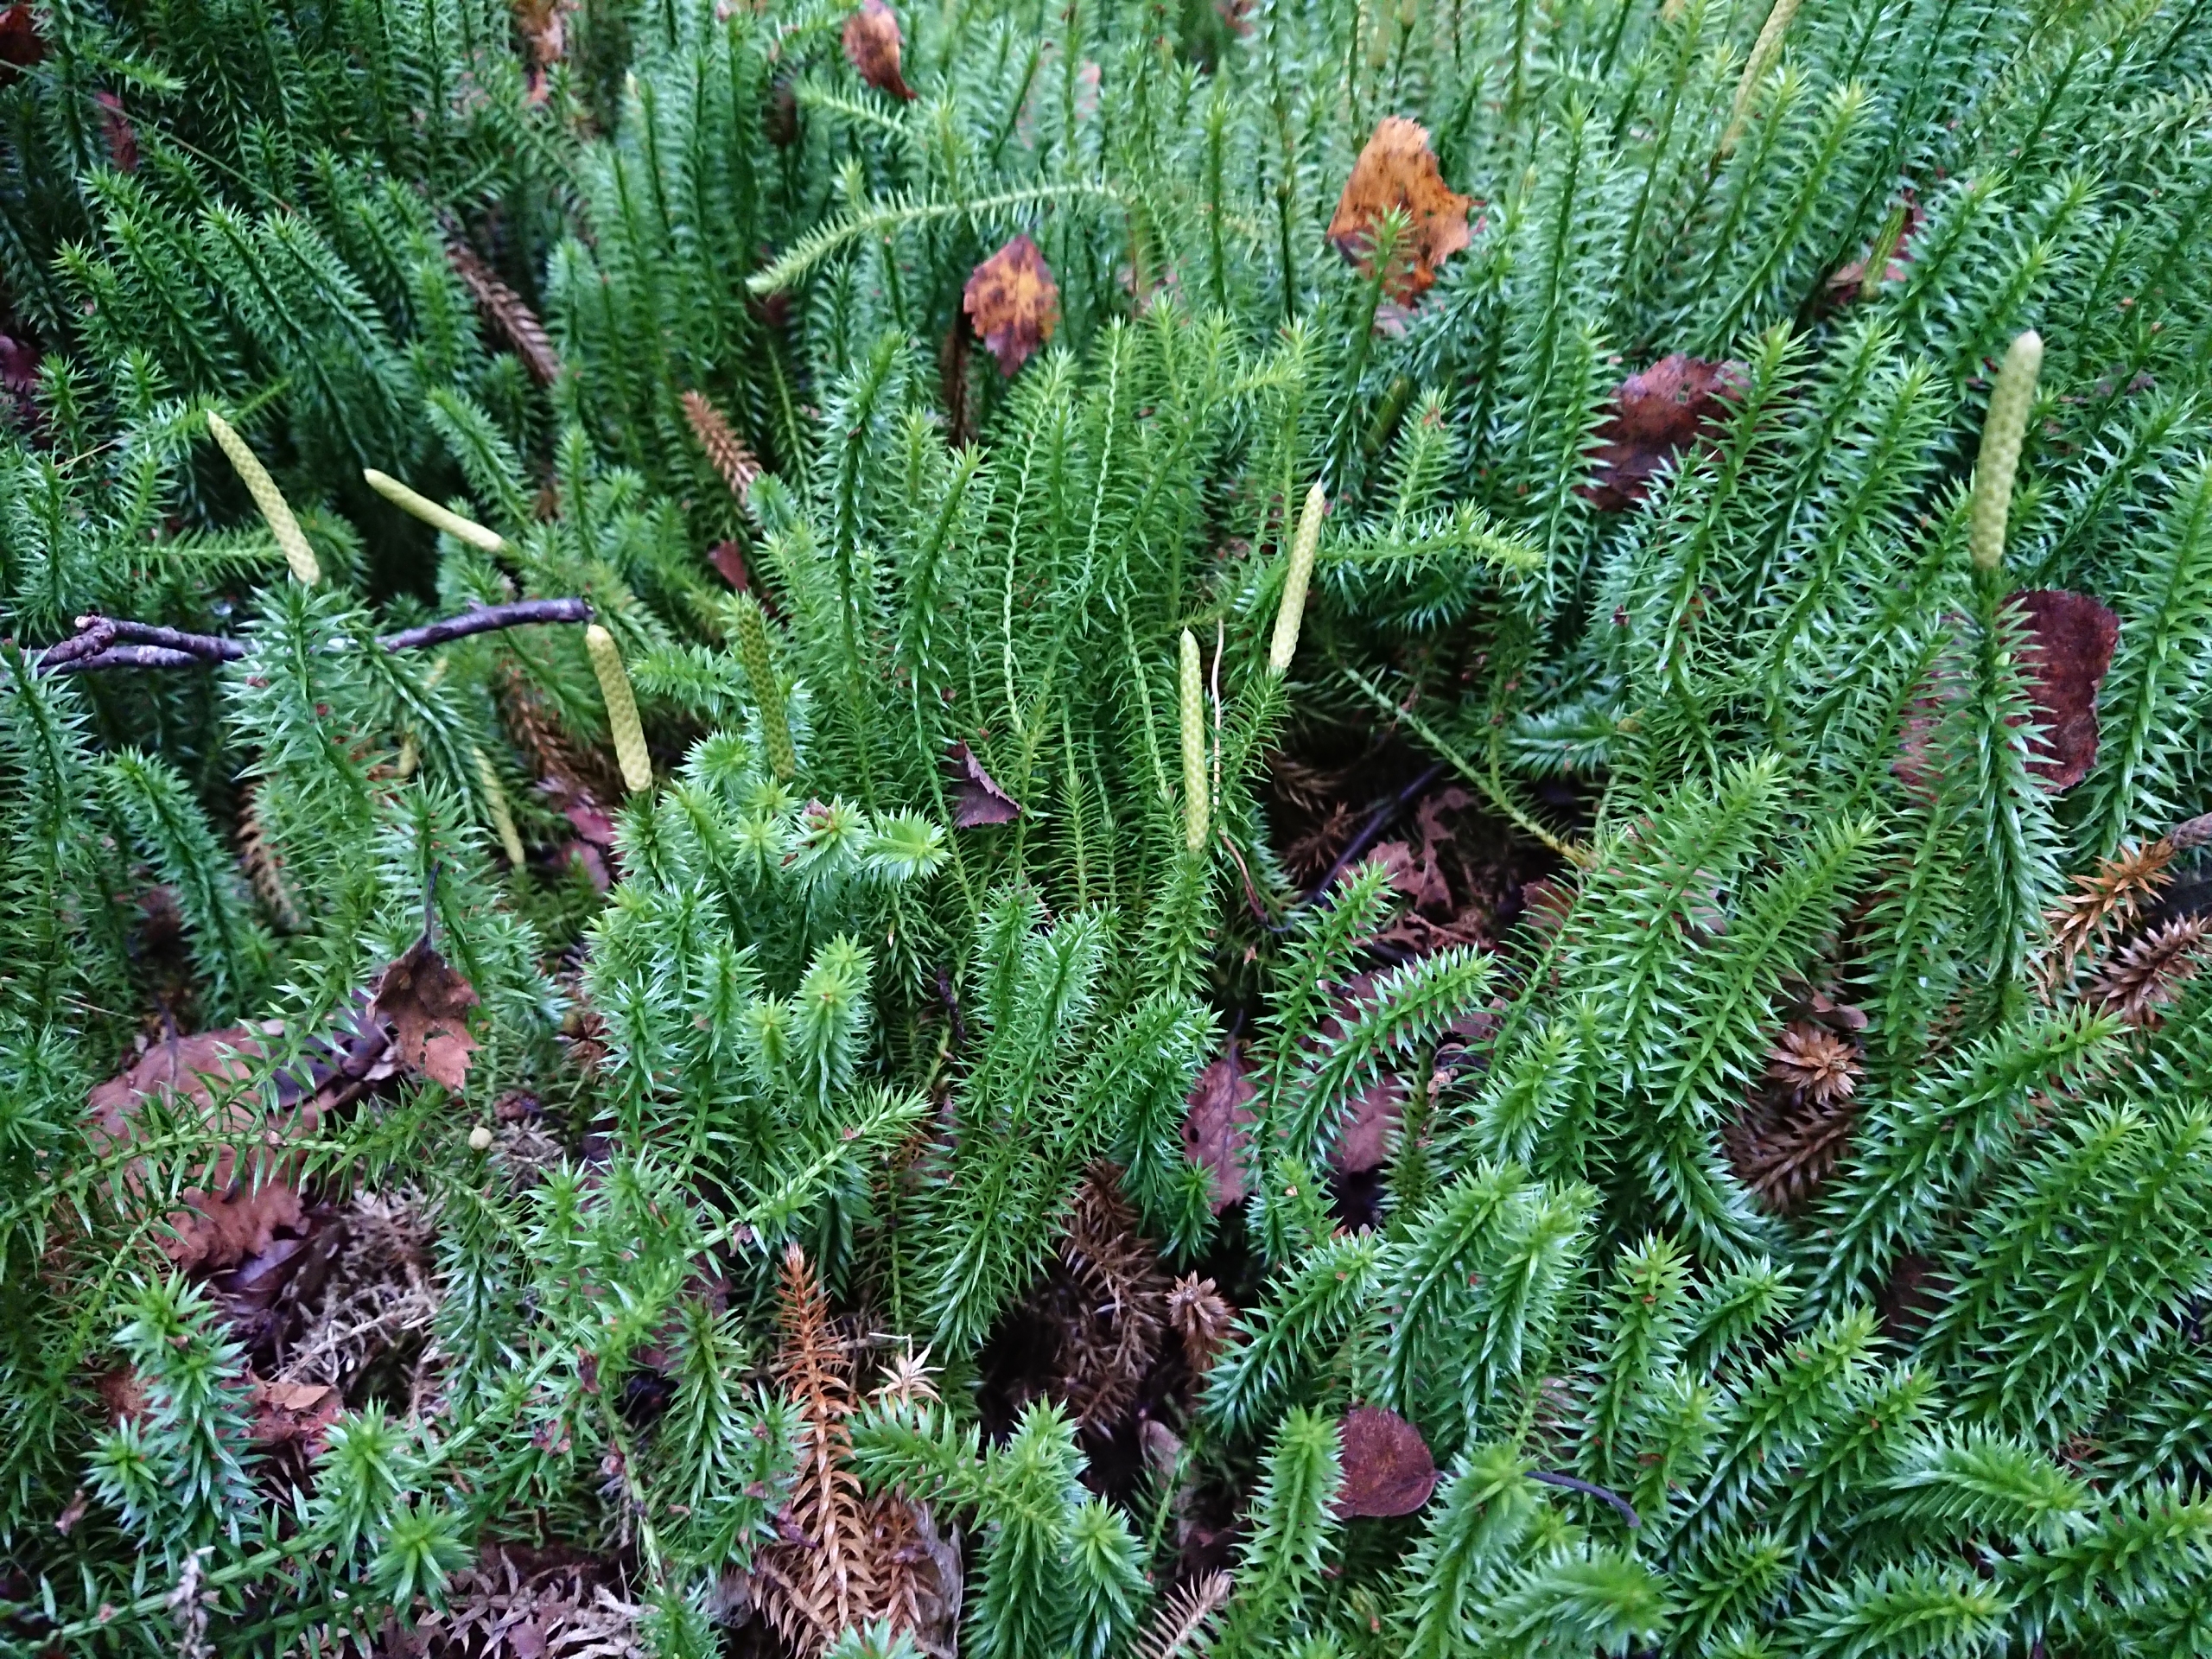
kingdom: Plantae
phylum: Tracheophyta
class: Lycopodiopsida
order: Lycopodiales
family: Lycopodiaceae
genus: Spinulum
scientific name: Spinulum annotinum
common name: Femradet ulvefod
